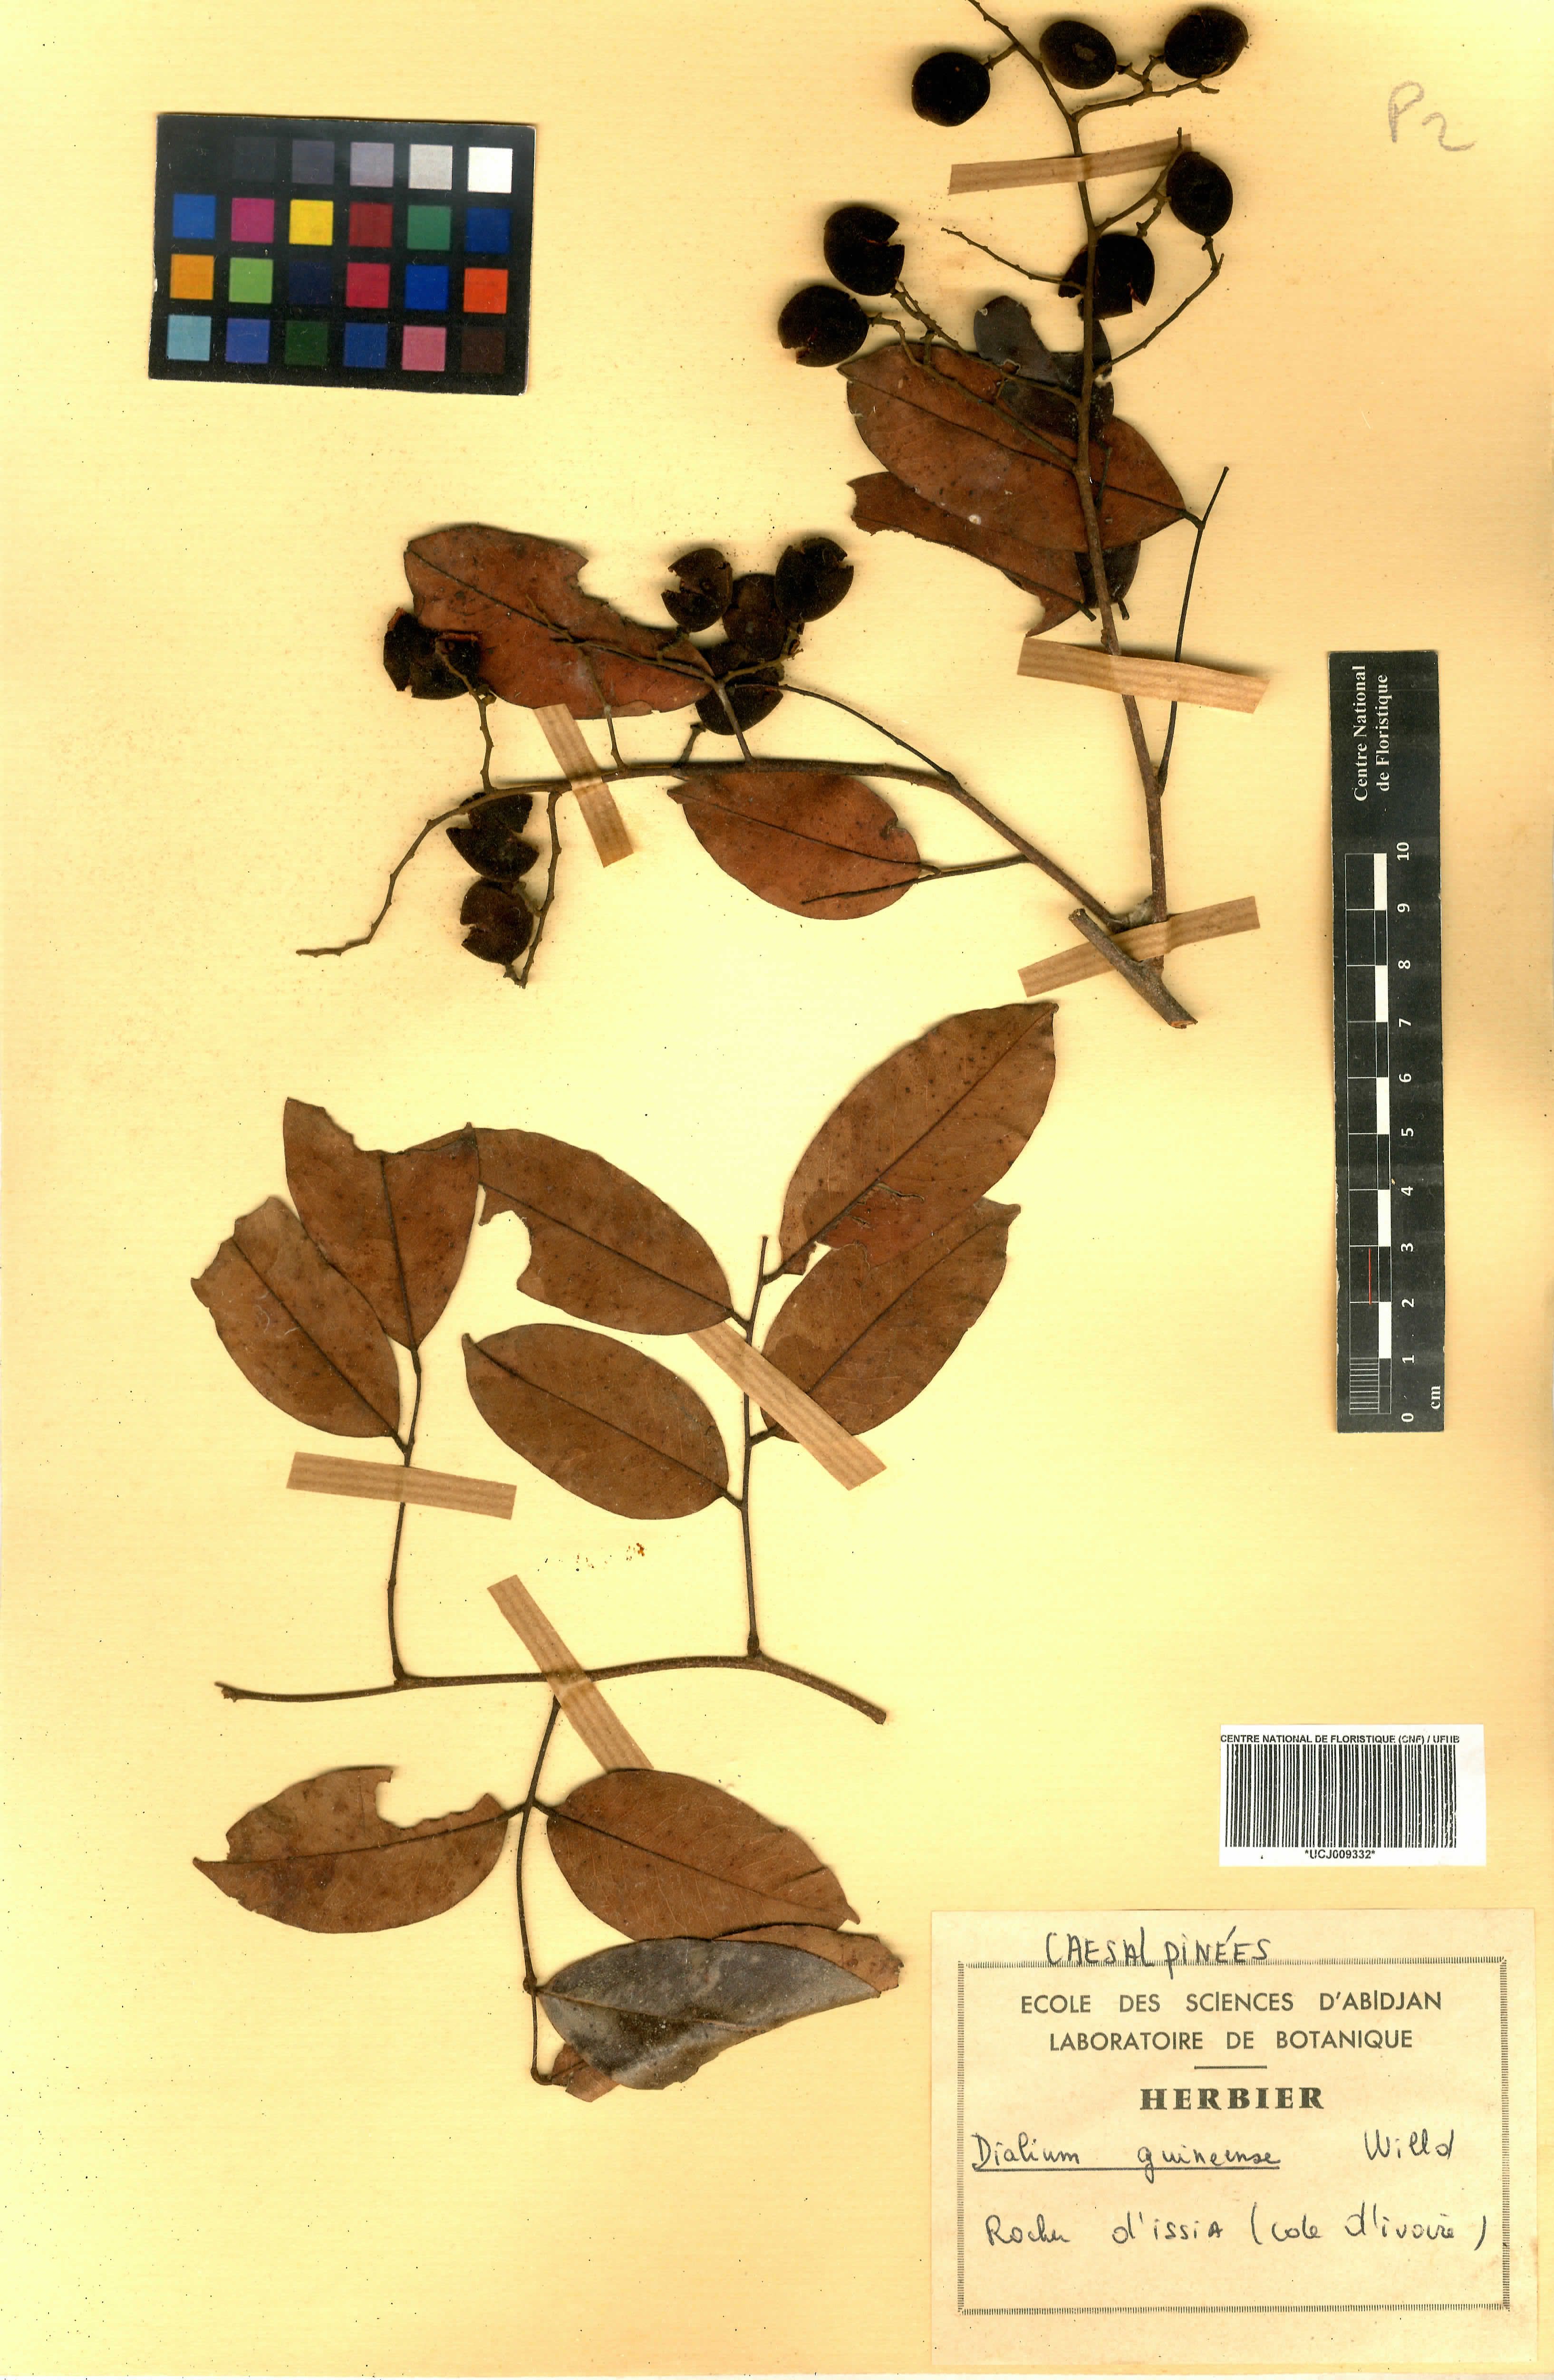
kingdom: Plantae
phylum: Tracheophyta
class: Magnoliopsida
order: Fabales
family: Fabaceae
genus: Dialium
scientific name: Dialium guineense
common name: Sierra leone-tamarind
